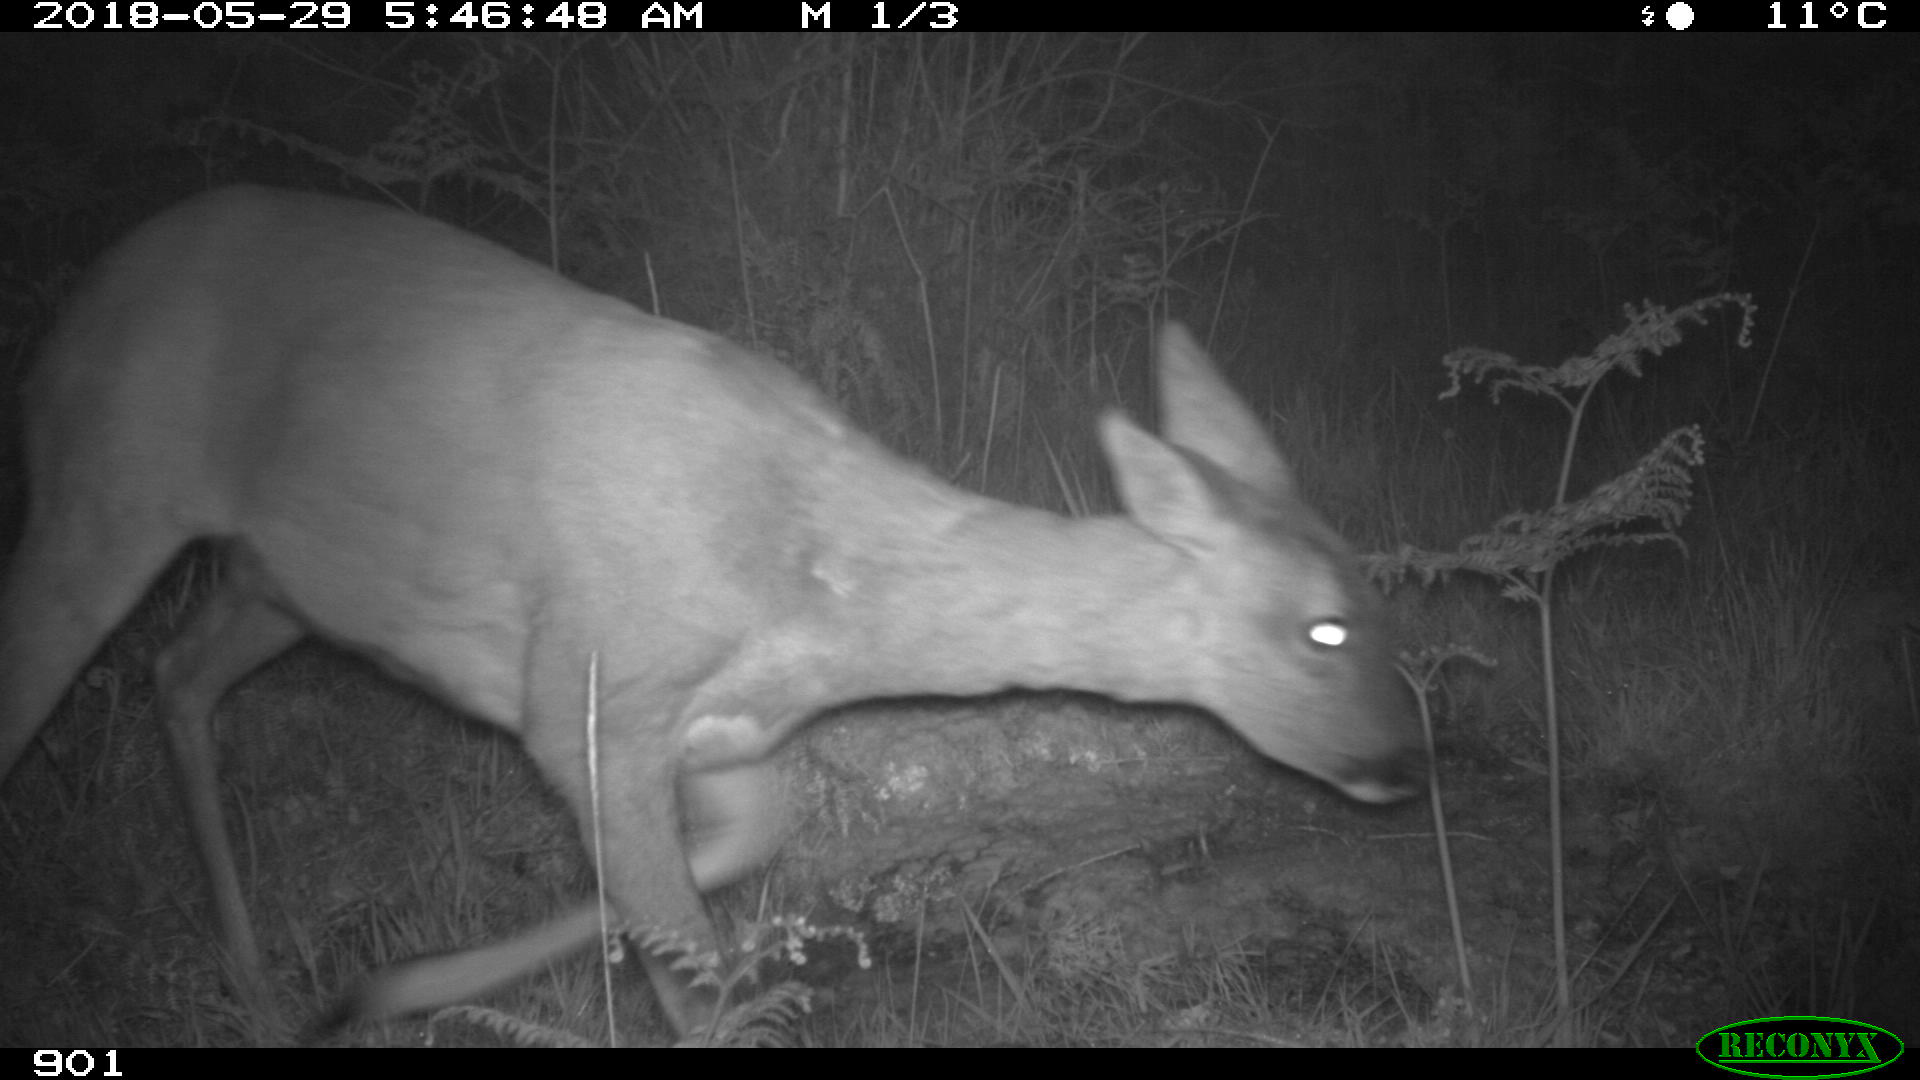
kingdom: Animalia
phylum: Chordata
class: Mammalia
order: Artiodactyla
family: Cervidae
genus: Capreolus
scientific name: Capreolus capreolus
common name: Western roe deer
